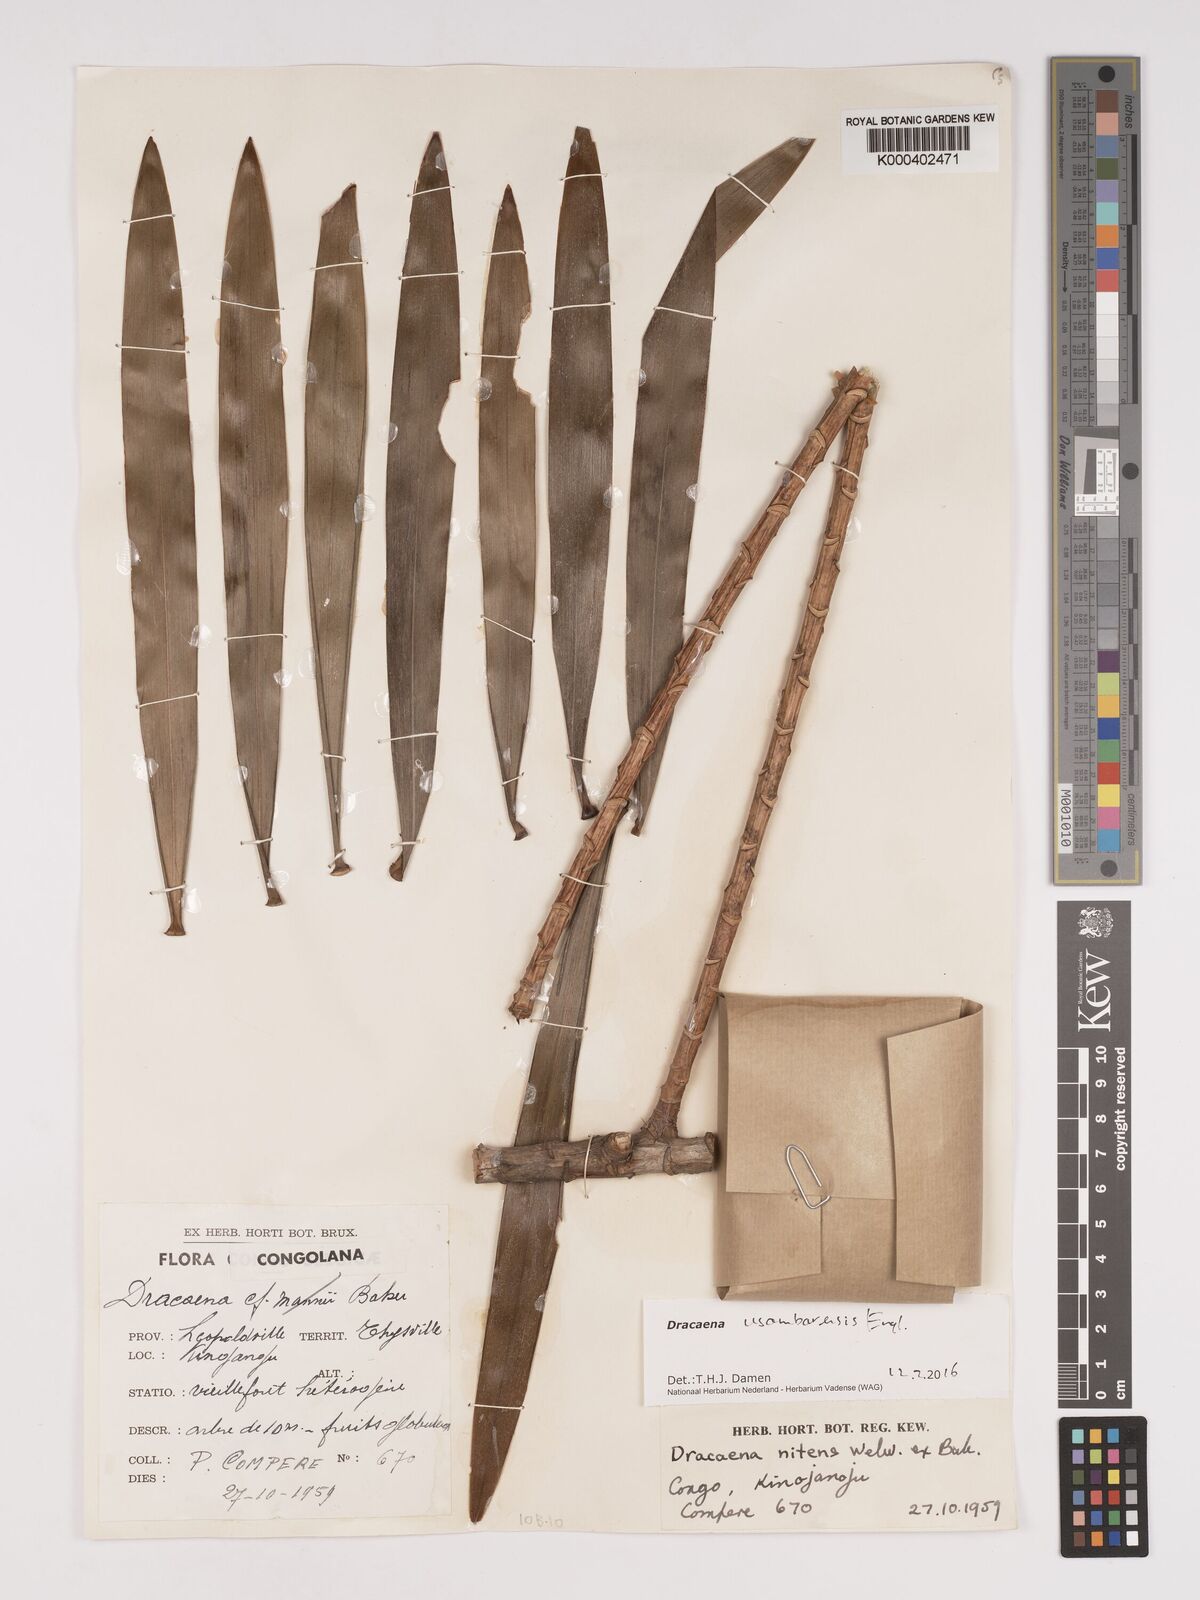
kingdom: Plantae
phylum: Tracheophyta
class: Liliopsida
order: Asparagales
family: Asparagaceae
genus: Dracaena
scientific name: Dracaena usambarensis
